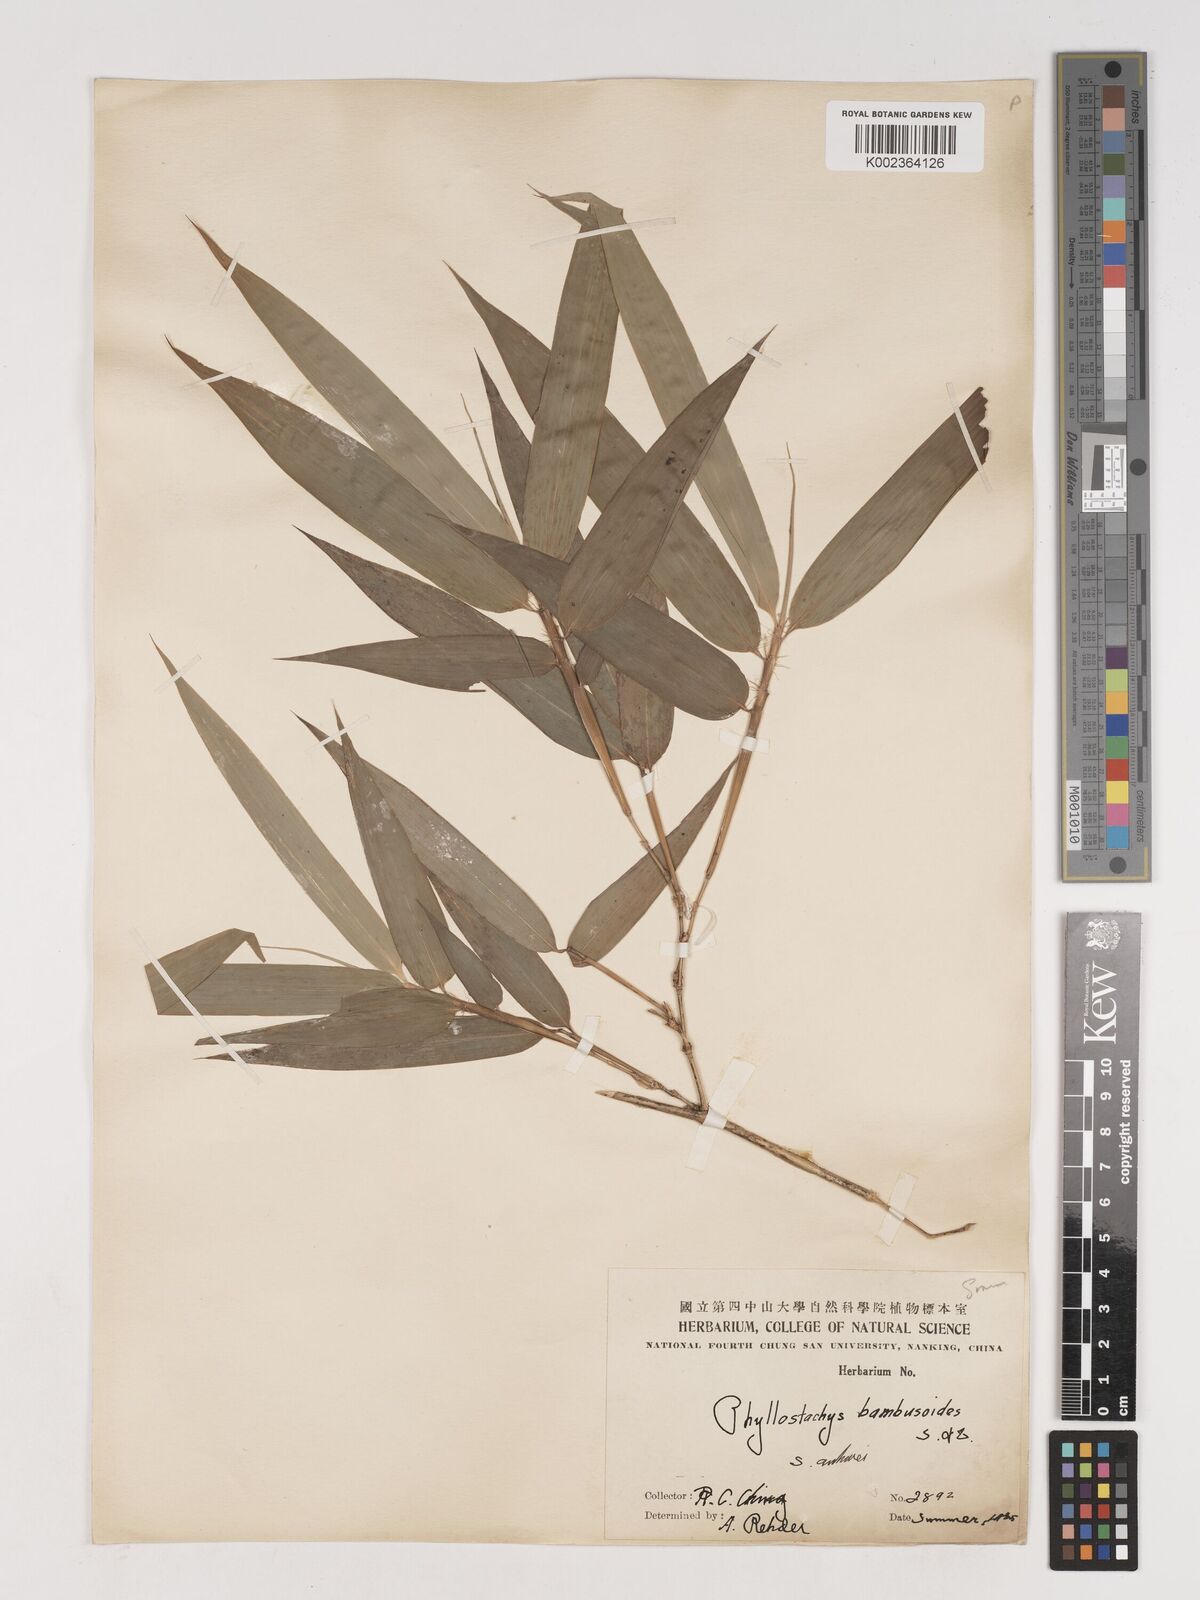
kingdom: Plantae
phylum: Tracheophyta
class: Liliopsida
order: Poales
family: Poaceae
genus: Phyllostachys
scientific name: Phyllostachys reticulata
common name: Bamboo
